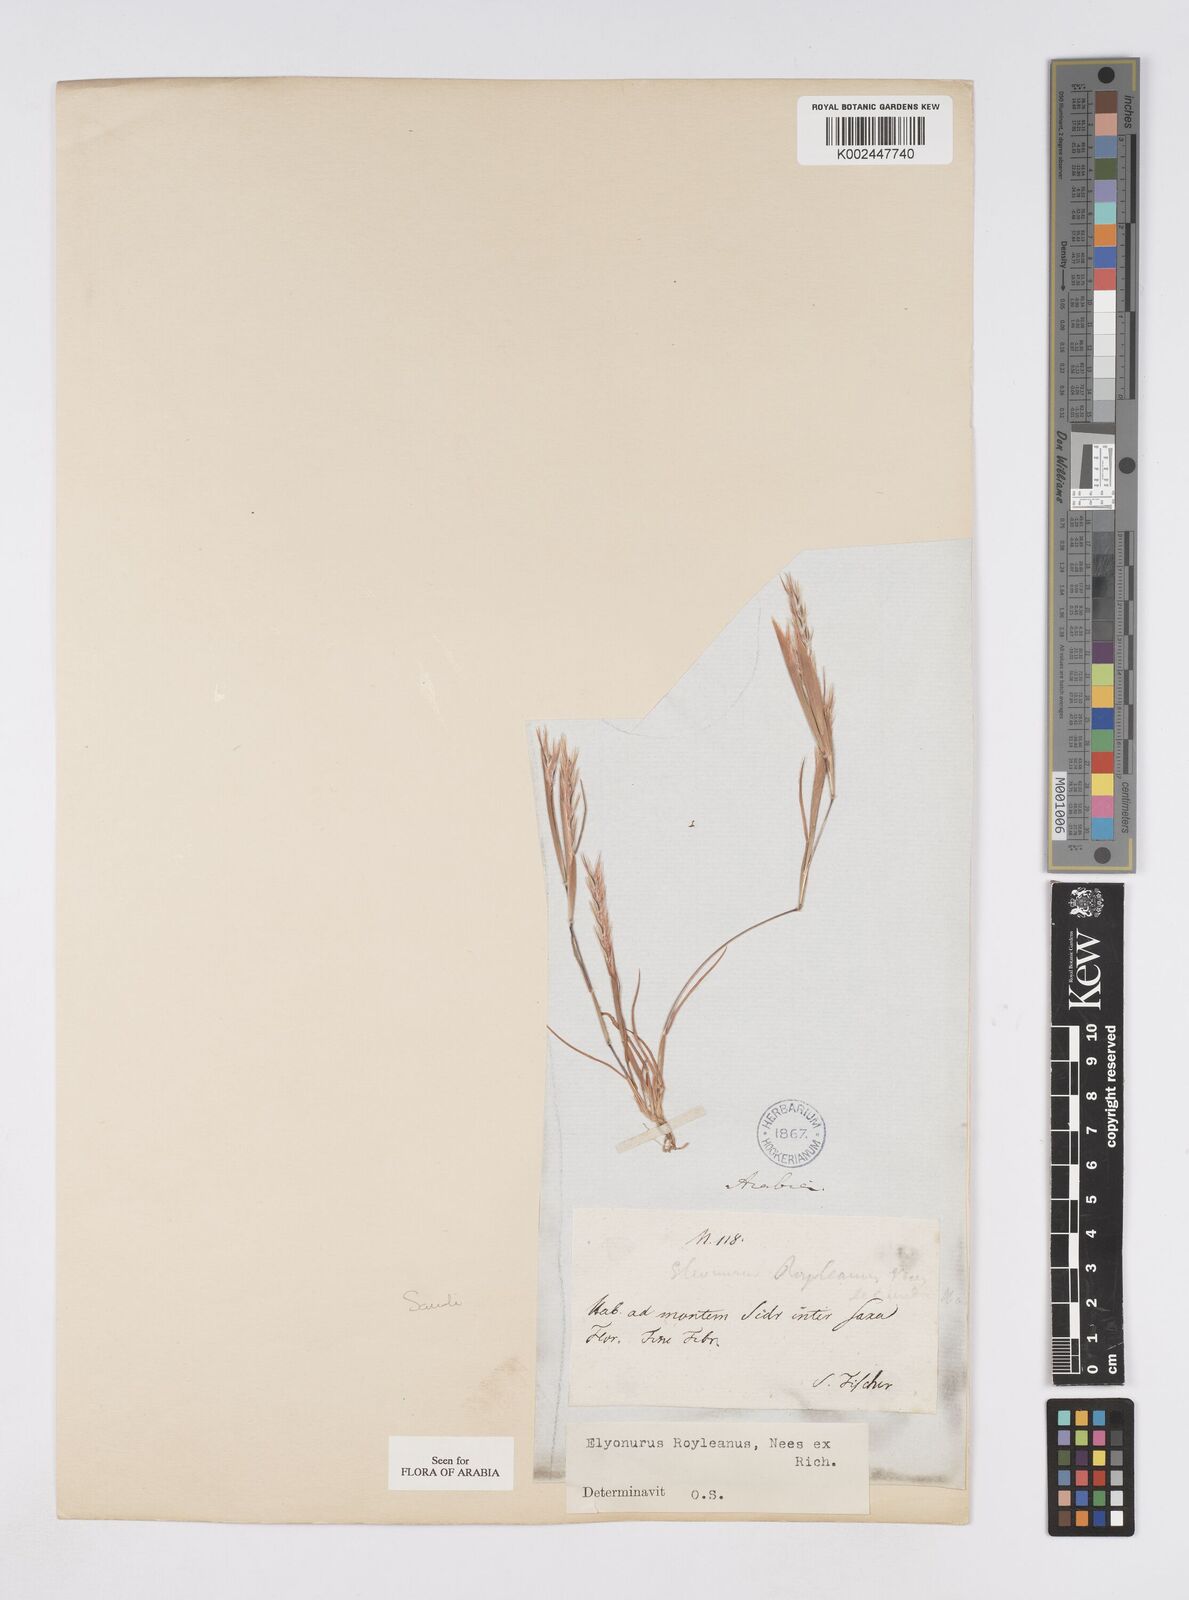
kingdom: Plantae
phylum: Tracheophyta
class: Liliopsida
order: Poales
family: Poaceae
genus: Elionurus
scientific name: Elionurus royleanus
